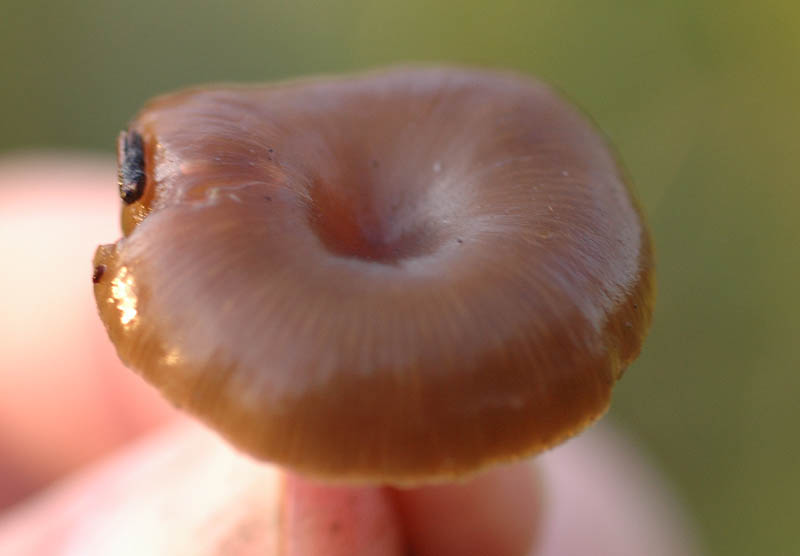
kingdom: Fungi
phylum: Basidiomycota
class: Agaricomycetes
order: Agaricales
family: Tricholomataceae
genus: Myxomphalia
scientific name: Myxomphalia maura
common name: kulhat
